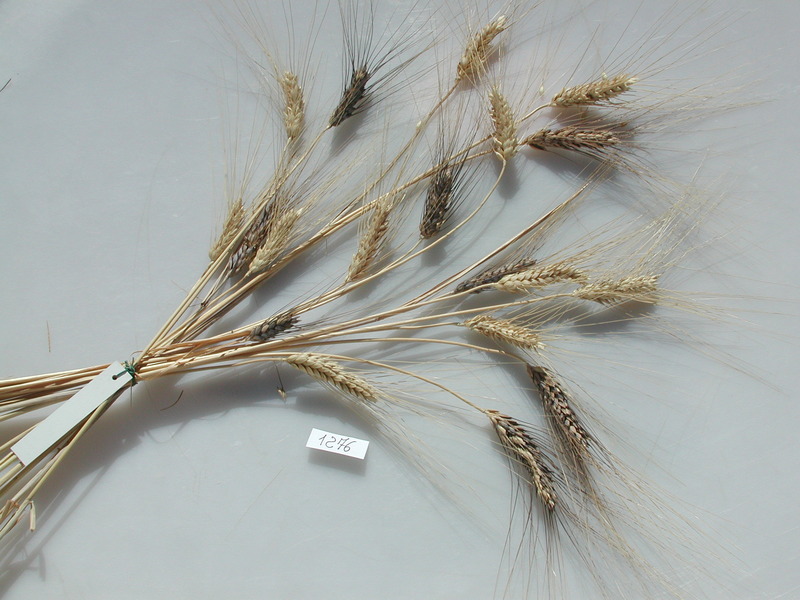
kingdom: Plantae
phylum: Tracheophyta
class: Liliopsida
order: Poales
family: Poaceae
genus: Triticum
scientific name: Triticum turgidum
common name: Wheat
